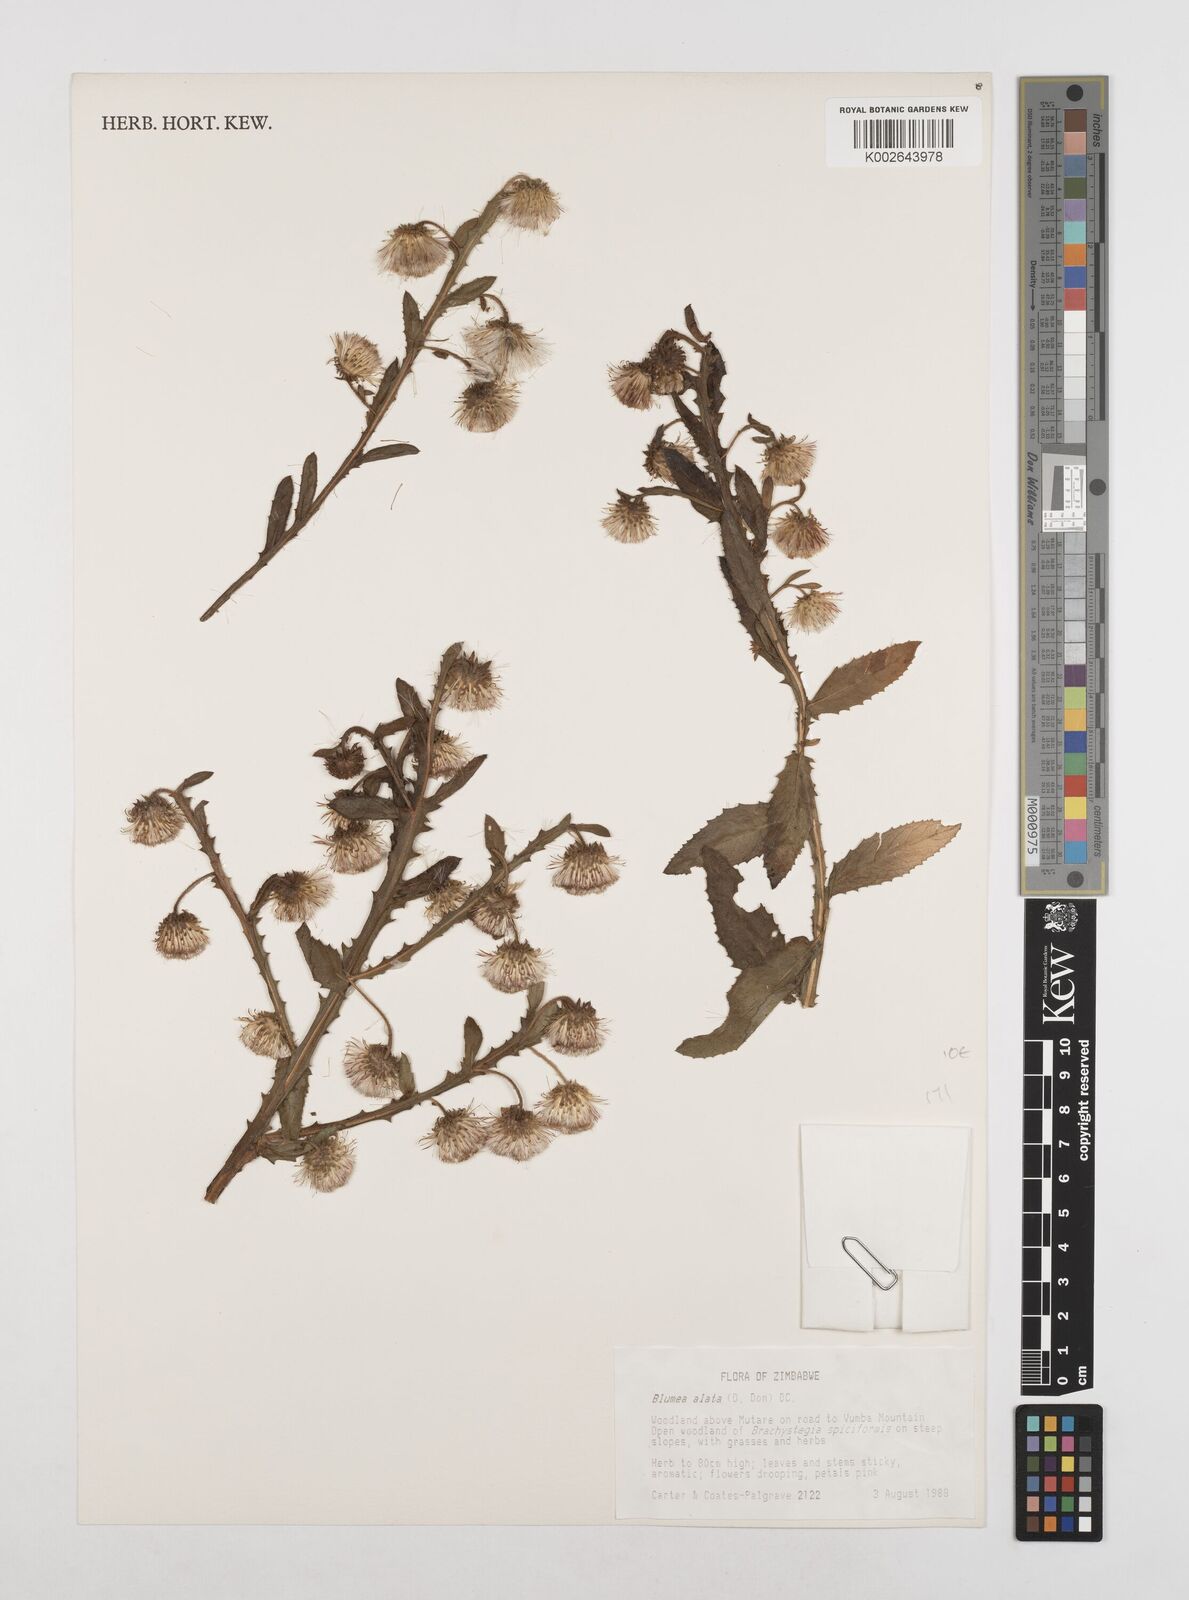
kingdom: Plantae
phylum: Tracheophyta
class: Magnoliopsida
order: Asterales
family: Asteraceae
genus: Laggera
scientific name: Laggera crispata
